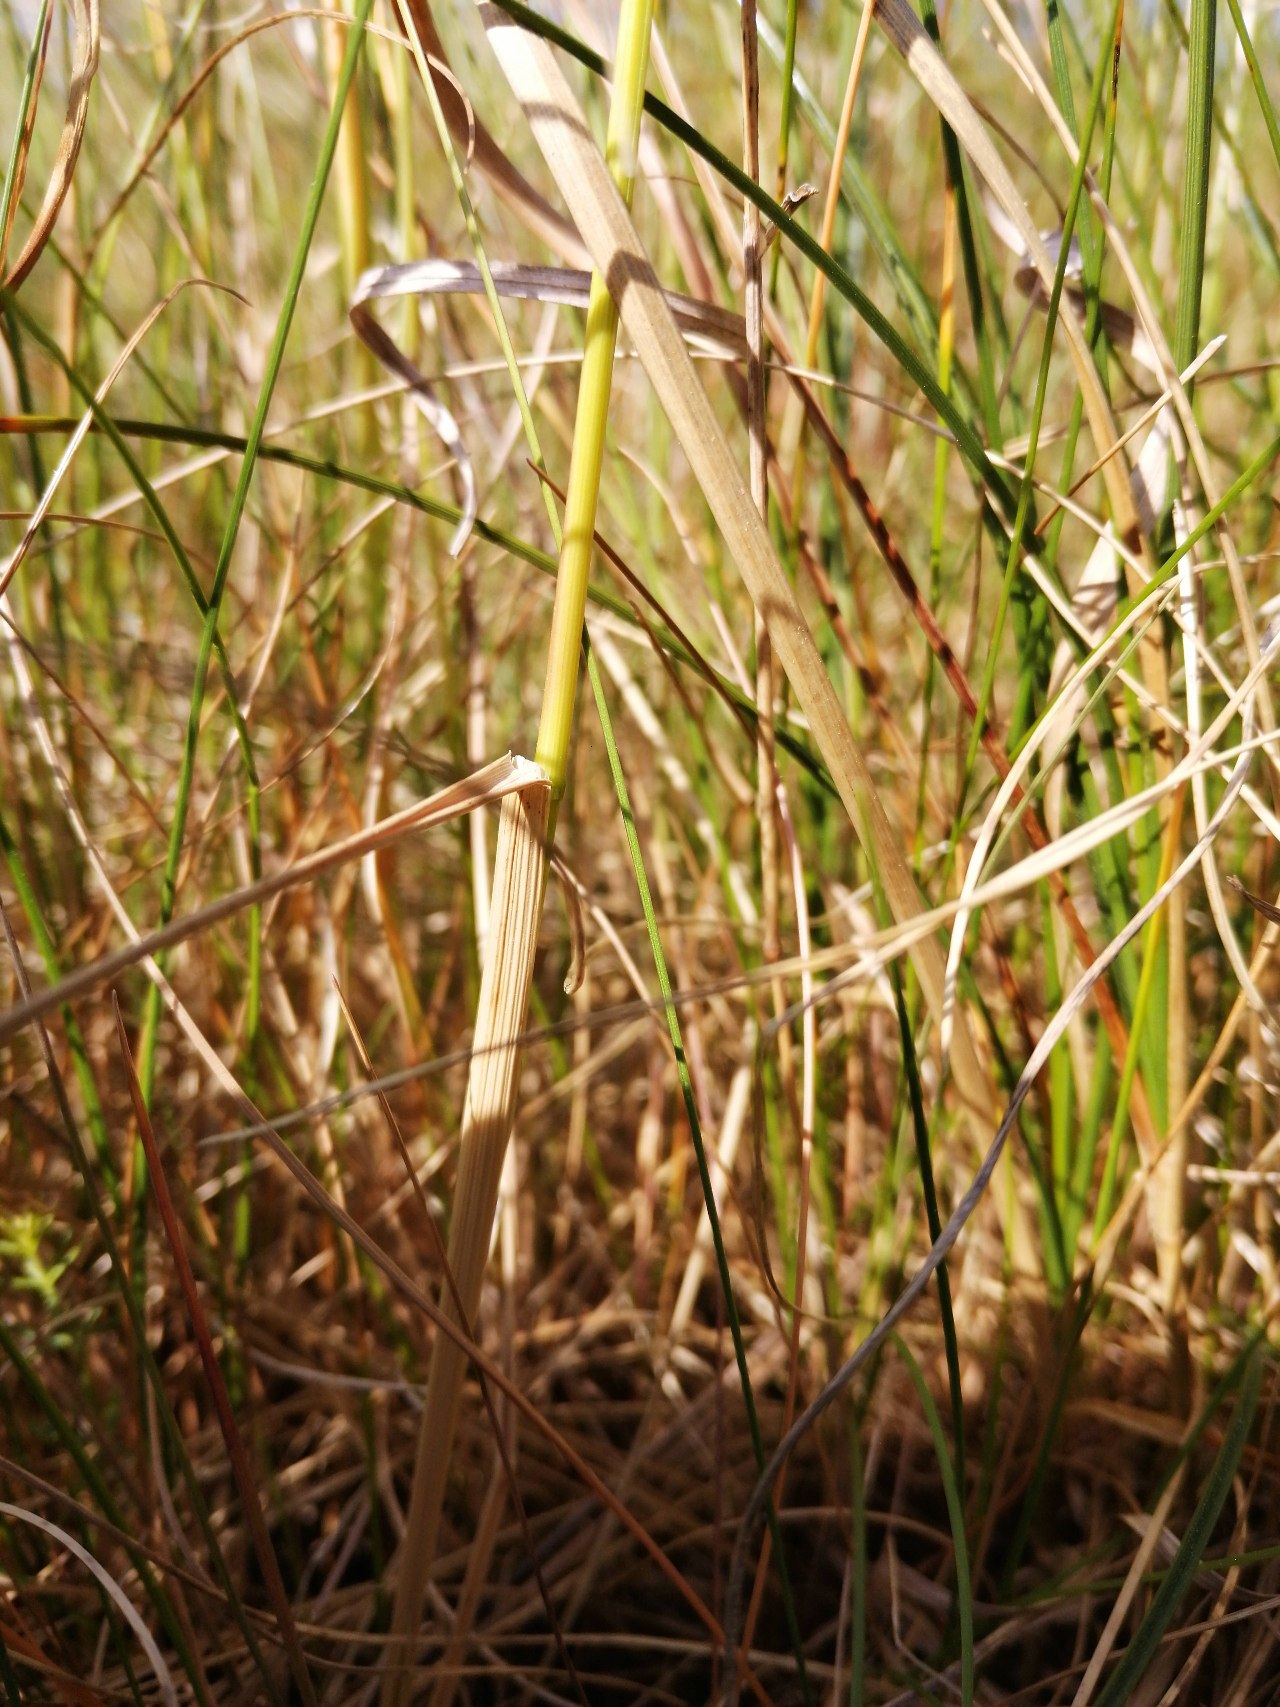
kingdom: Plantae
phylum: Tracheophyta
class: Liliopsida
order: Poales
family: Poaceae
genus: Poa
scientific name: Poa pratensis
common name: Eng-rapgræs
